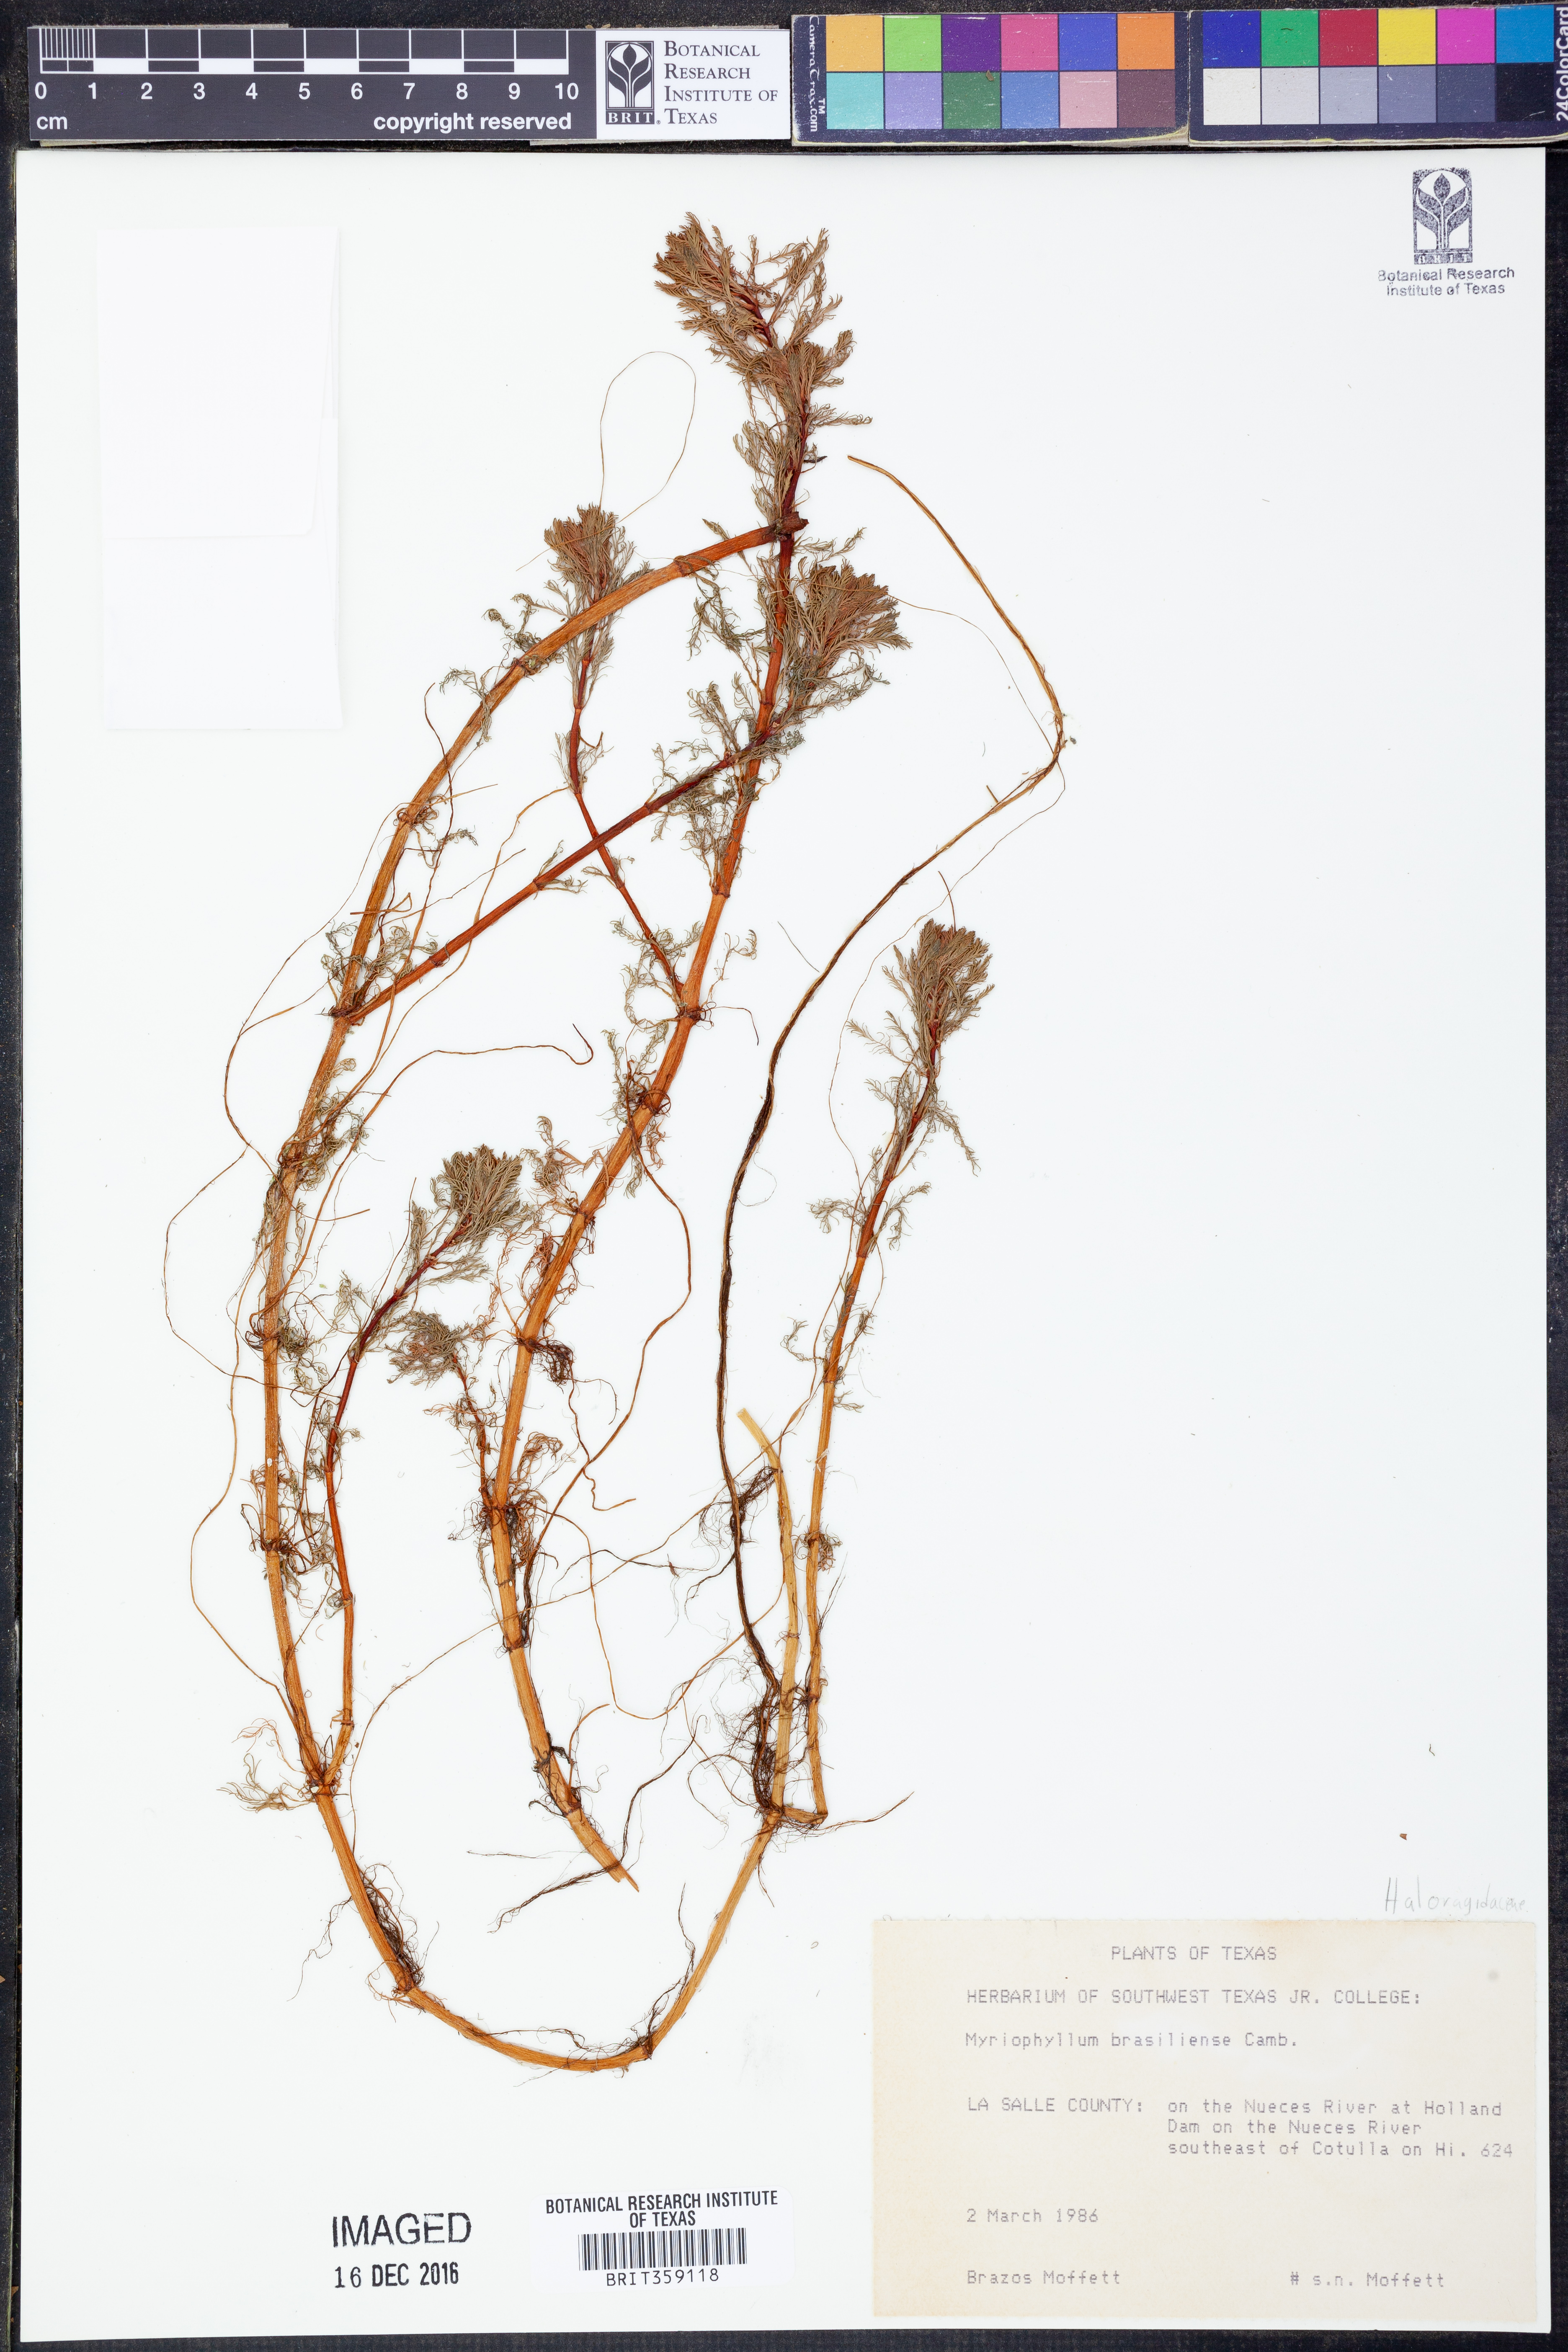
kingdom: Plantae
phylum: Tracheophyta
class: Magnoliopsida
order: Saxifragales
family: Haloragaceae
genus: Myriophyllum
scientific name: Myriophyllum aquaticum
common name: Parrot's feather
